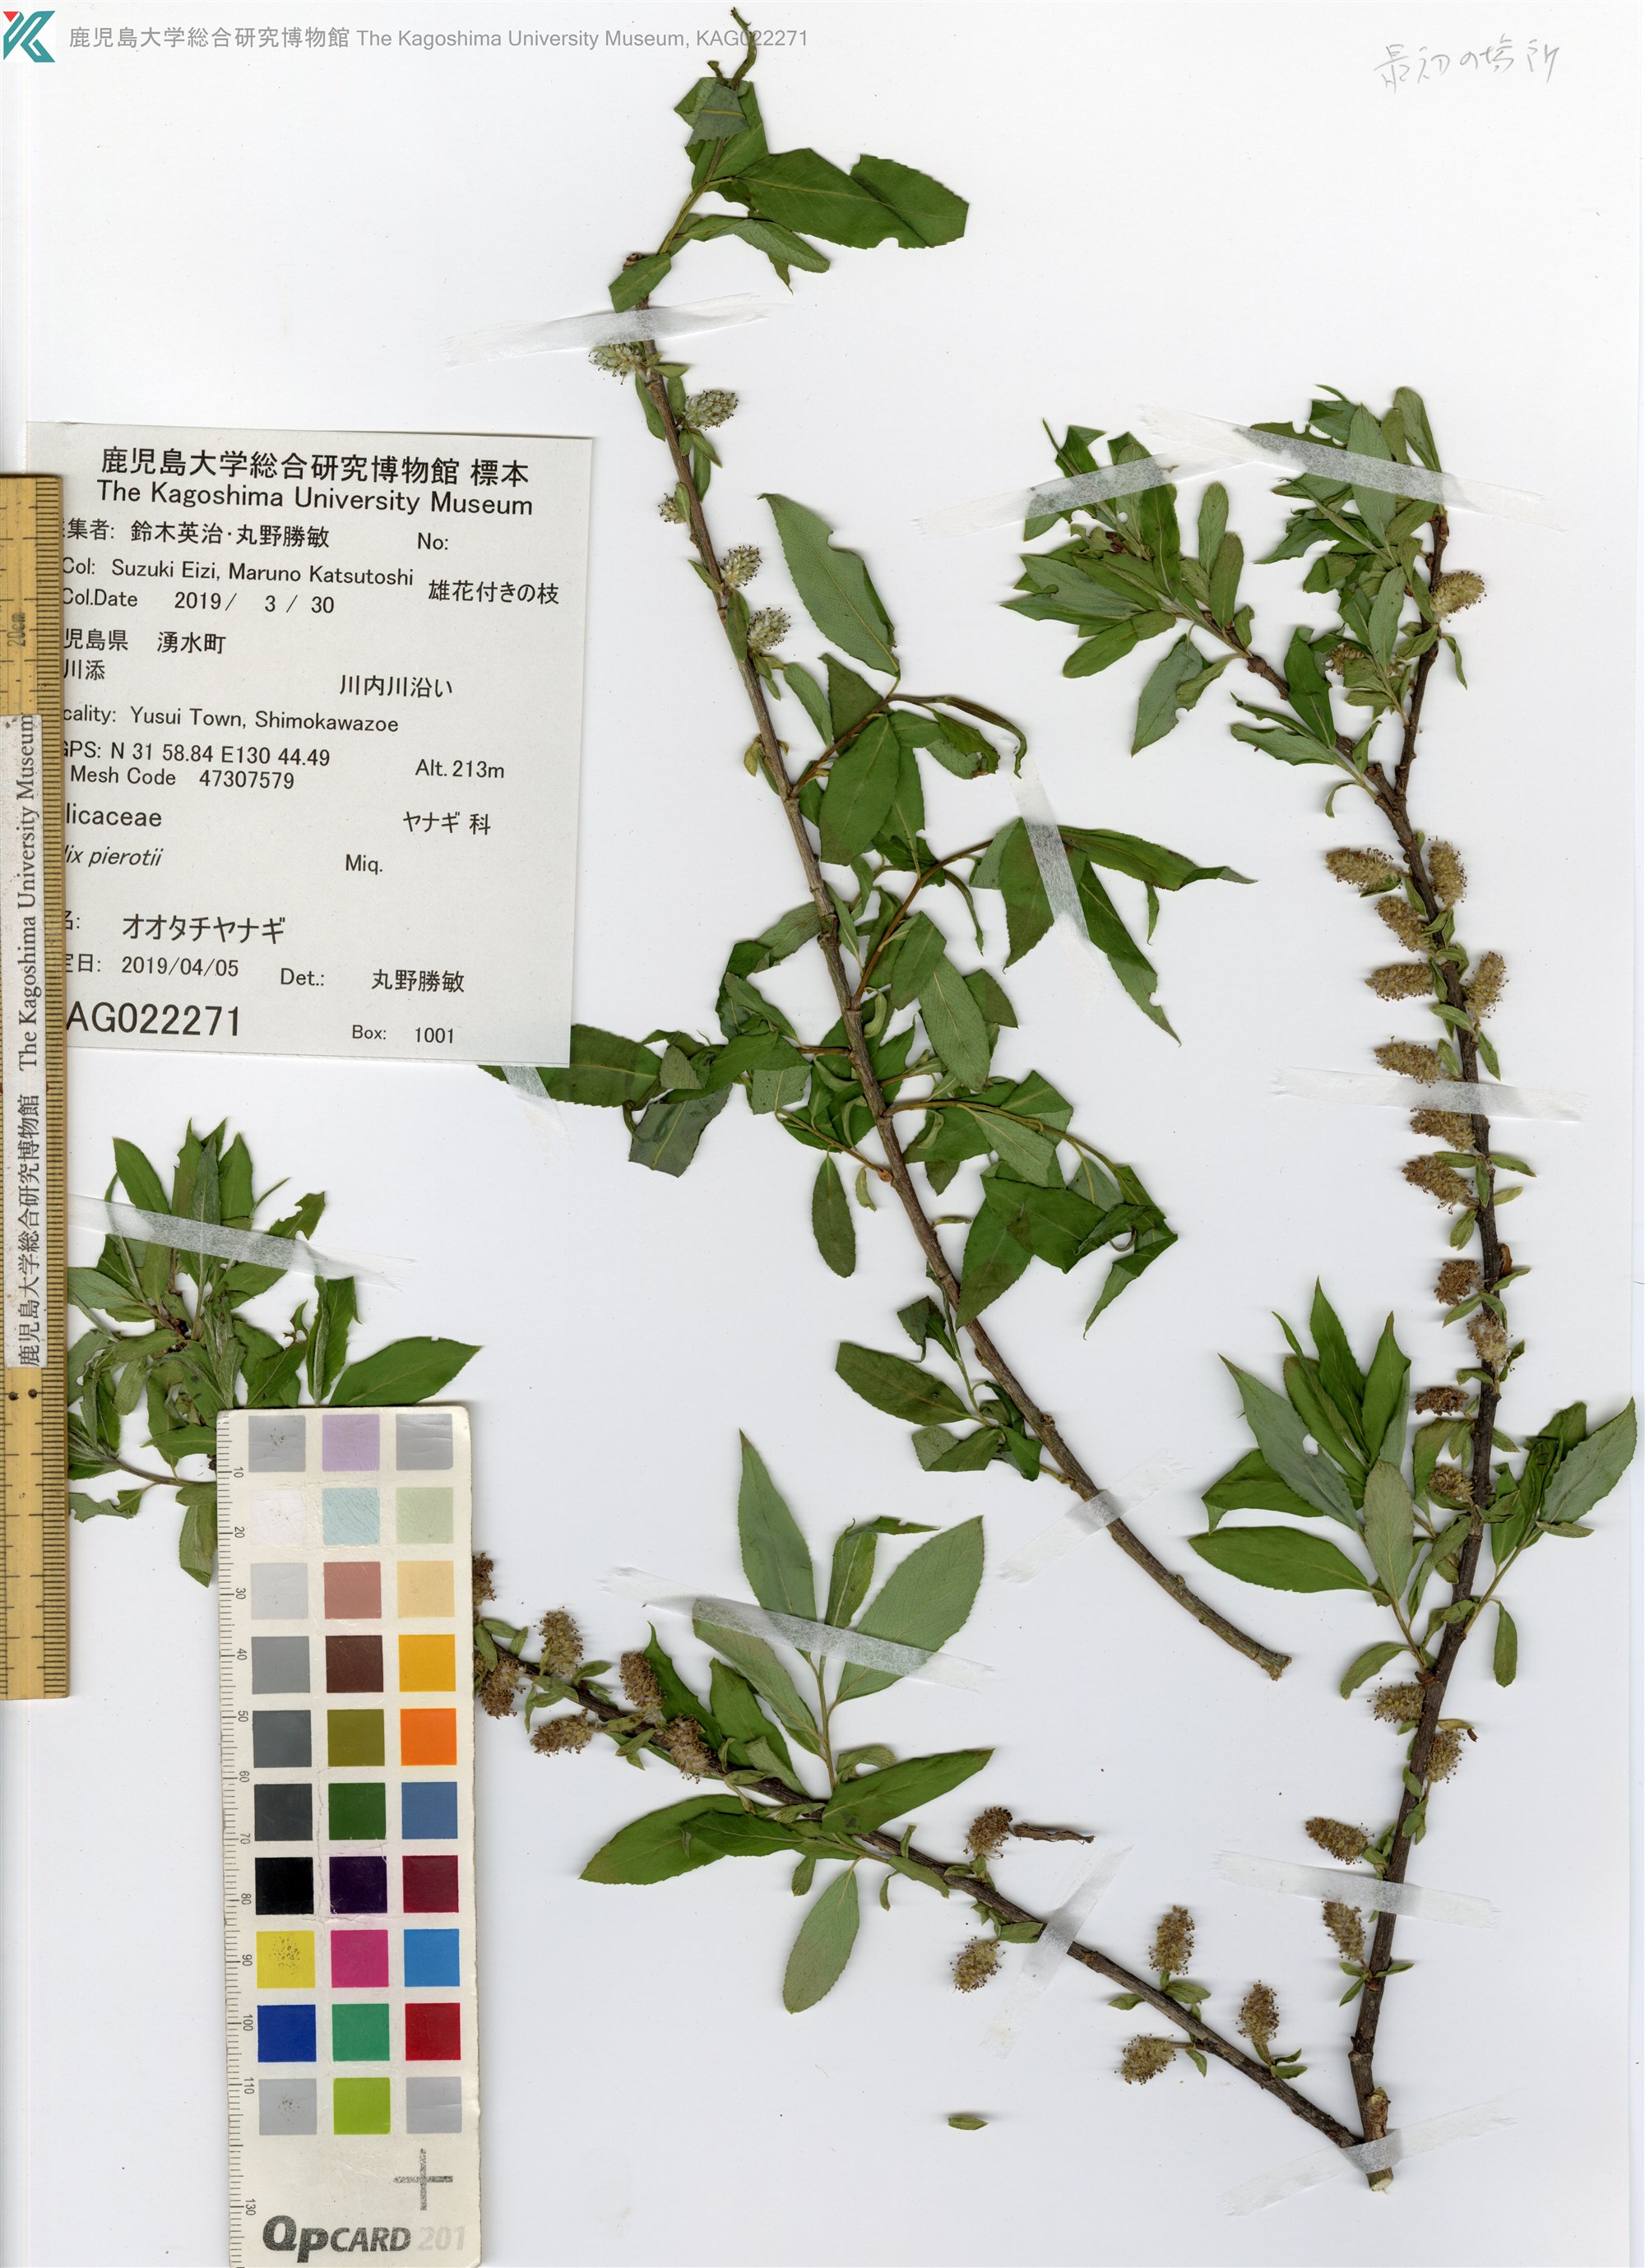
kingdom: Plantae
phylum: Tracheophyta
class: Magnoliopsida
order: Malpighiales
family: Salicaceae
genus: Salix
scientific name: Salix pierotii
